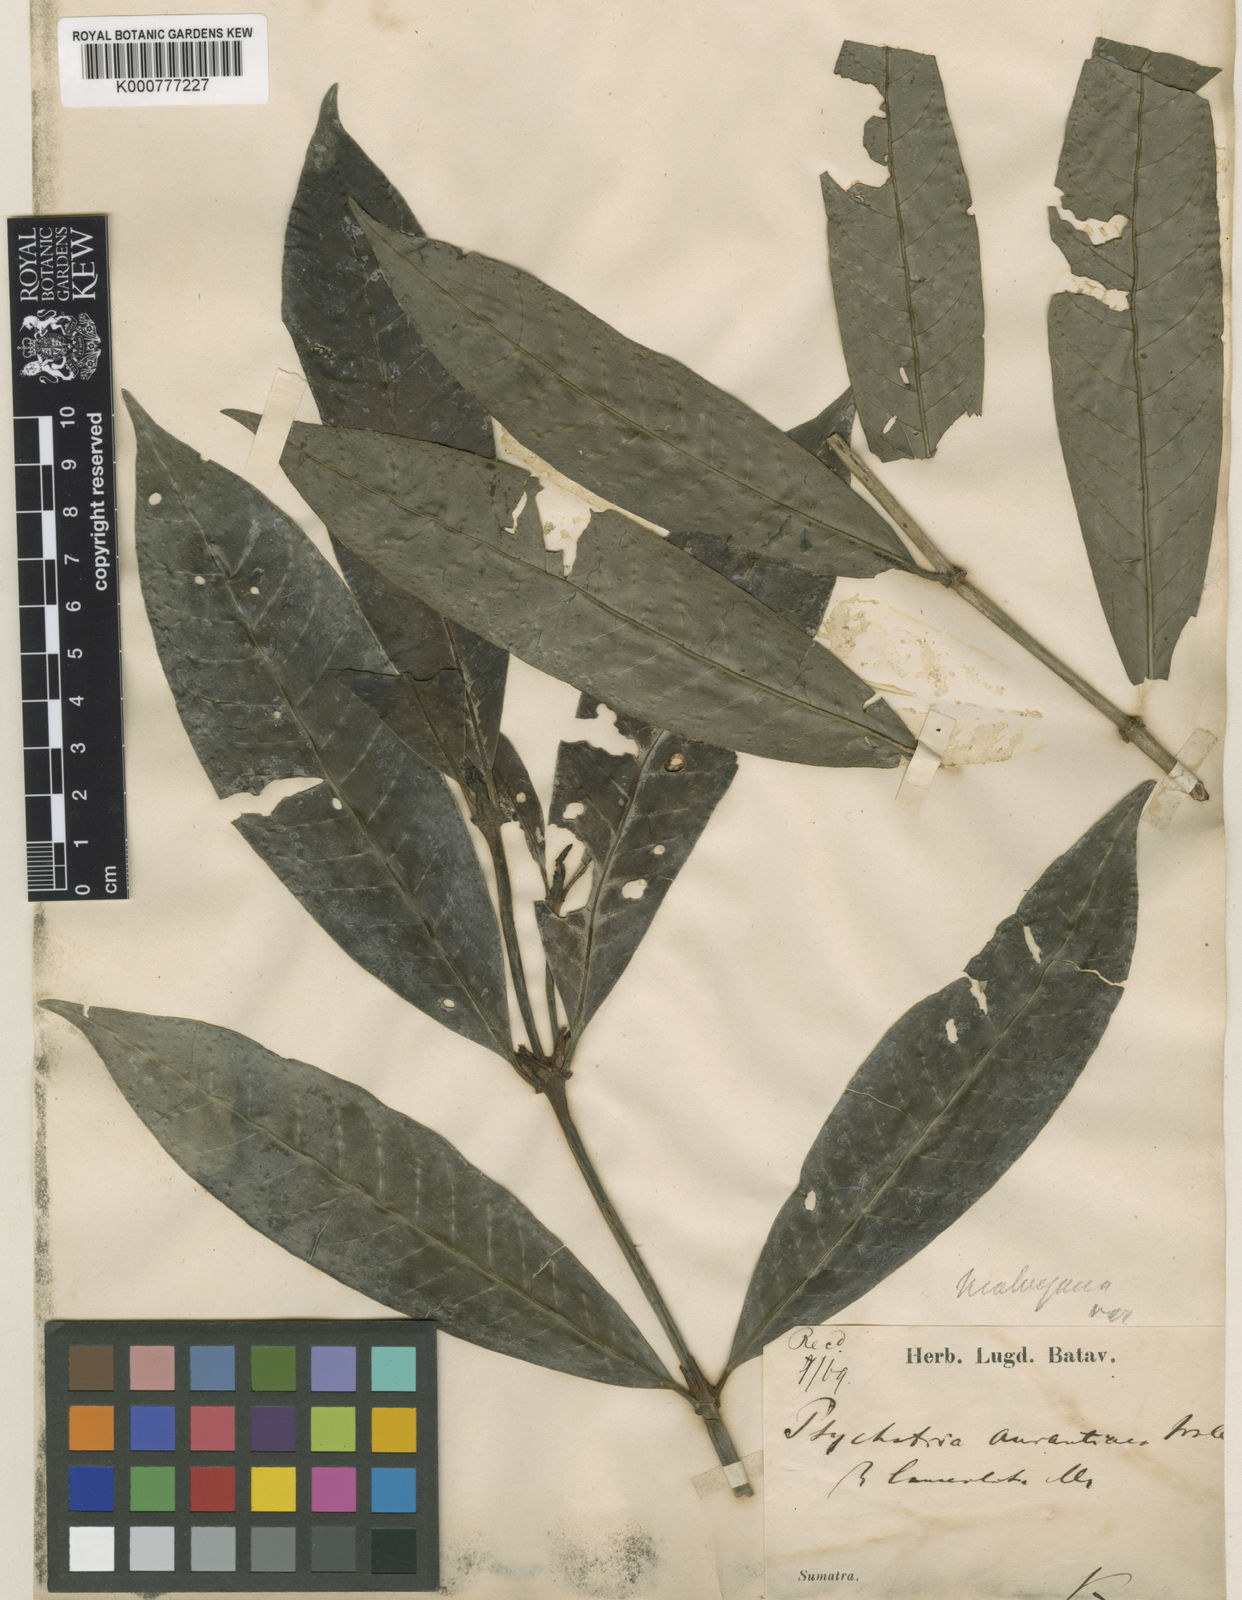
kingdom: Plantae
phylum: Tracheophyta
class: Magnoliopsida
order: Gentianales
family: Rubiaceae
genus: Psychotria
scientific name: Psychotria malayana
